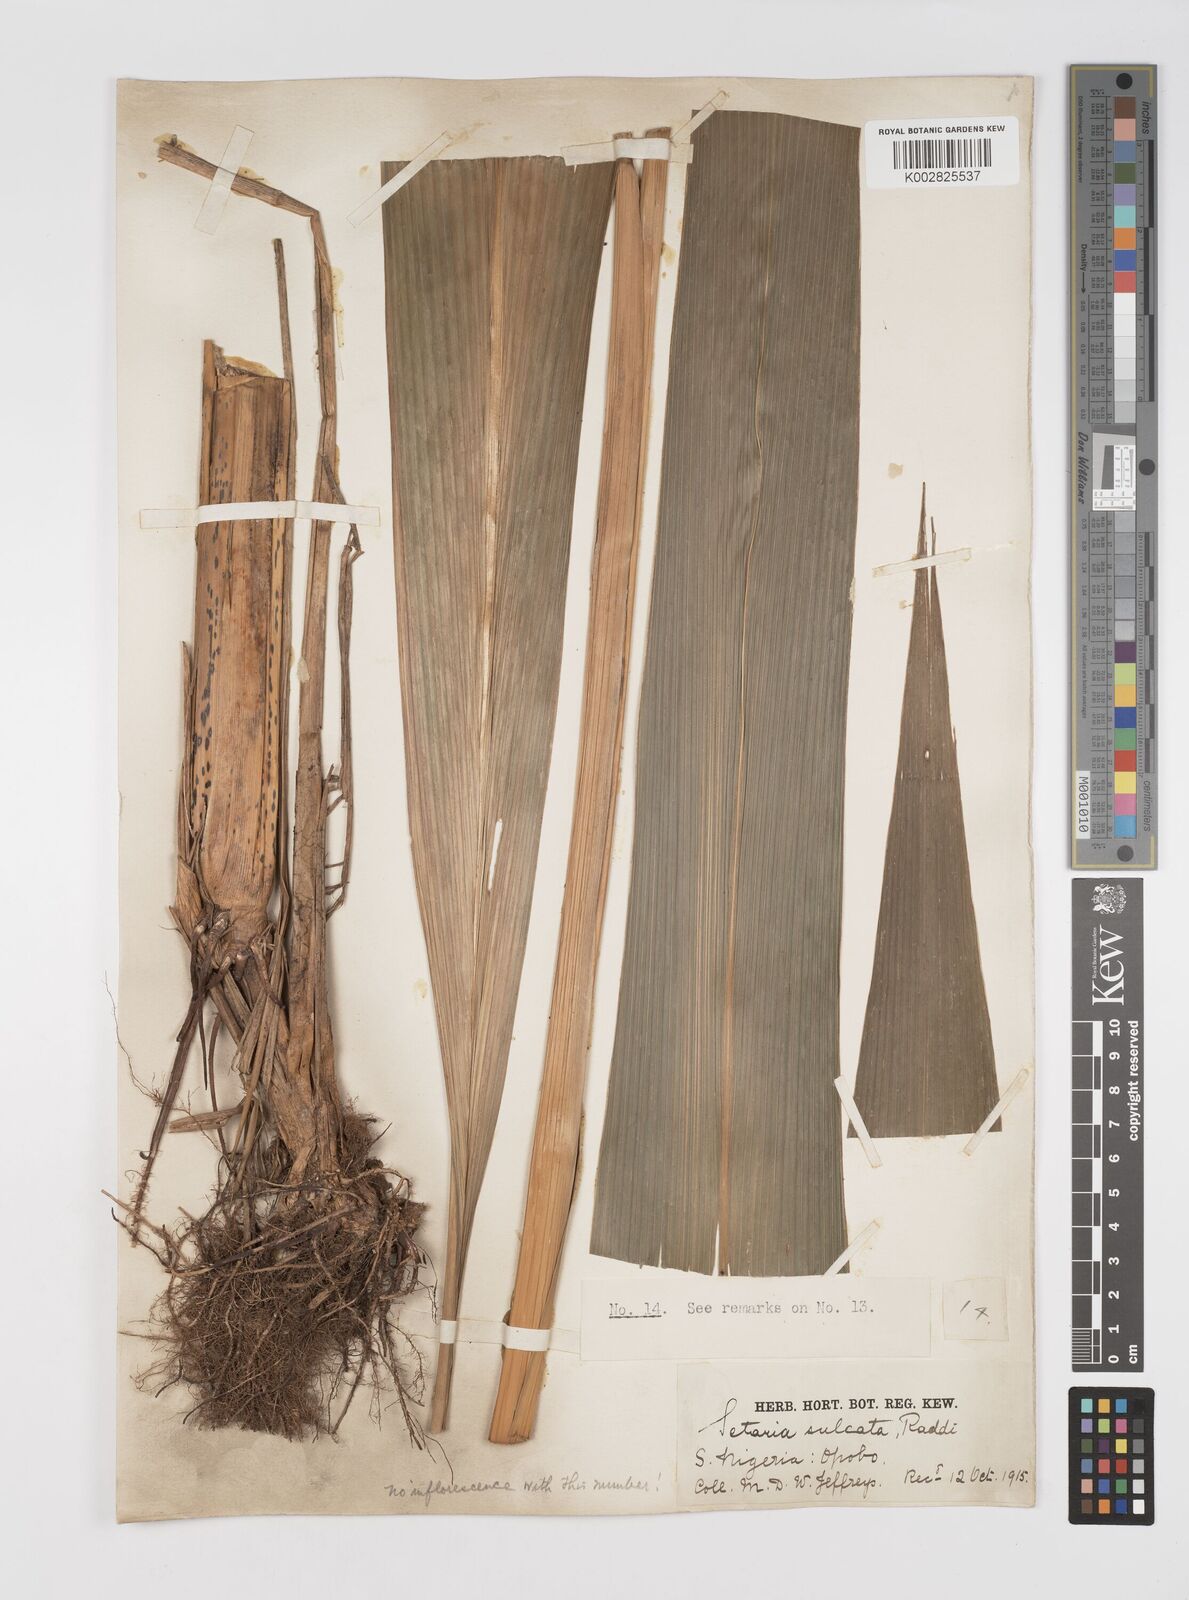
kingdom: Plantae
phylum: Tracheophyta
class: Liliopsida
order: Poales
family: Poaceae
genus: Setaria
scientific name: Setaria megaphylla
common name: Bigleaf bristlegrass
